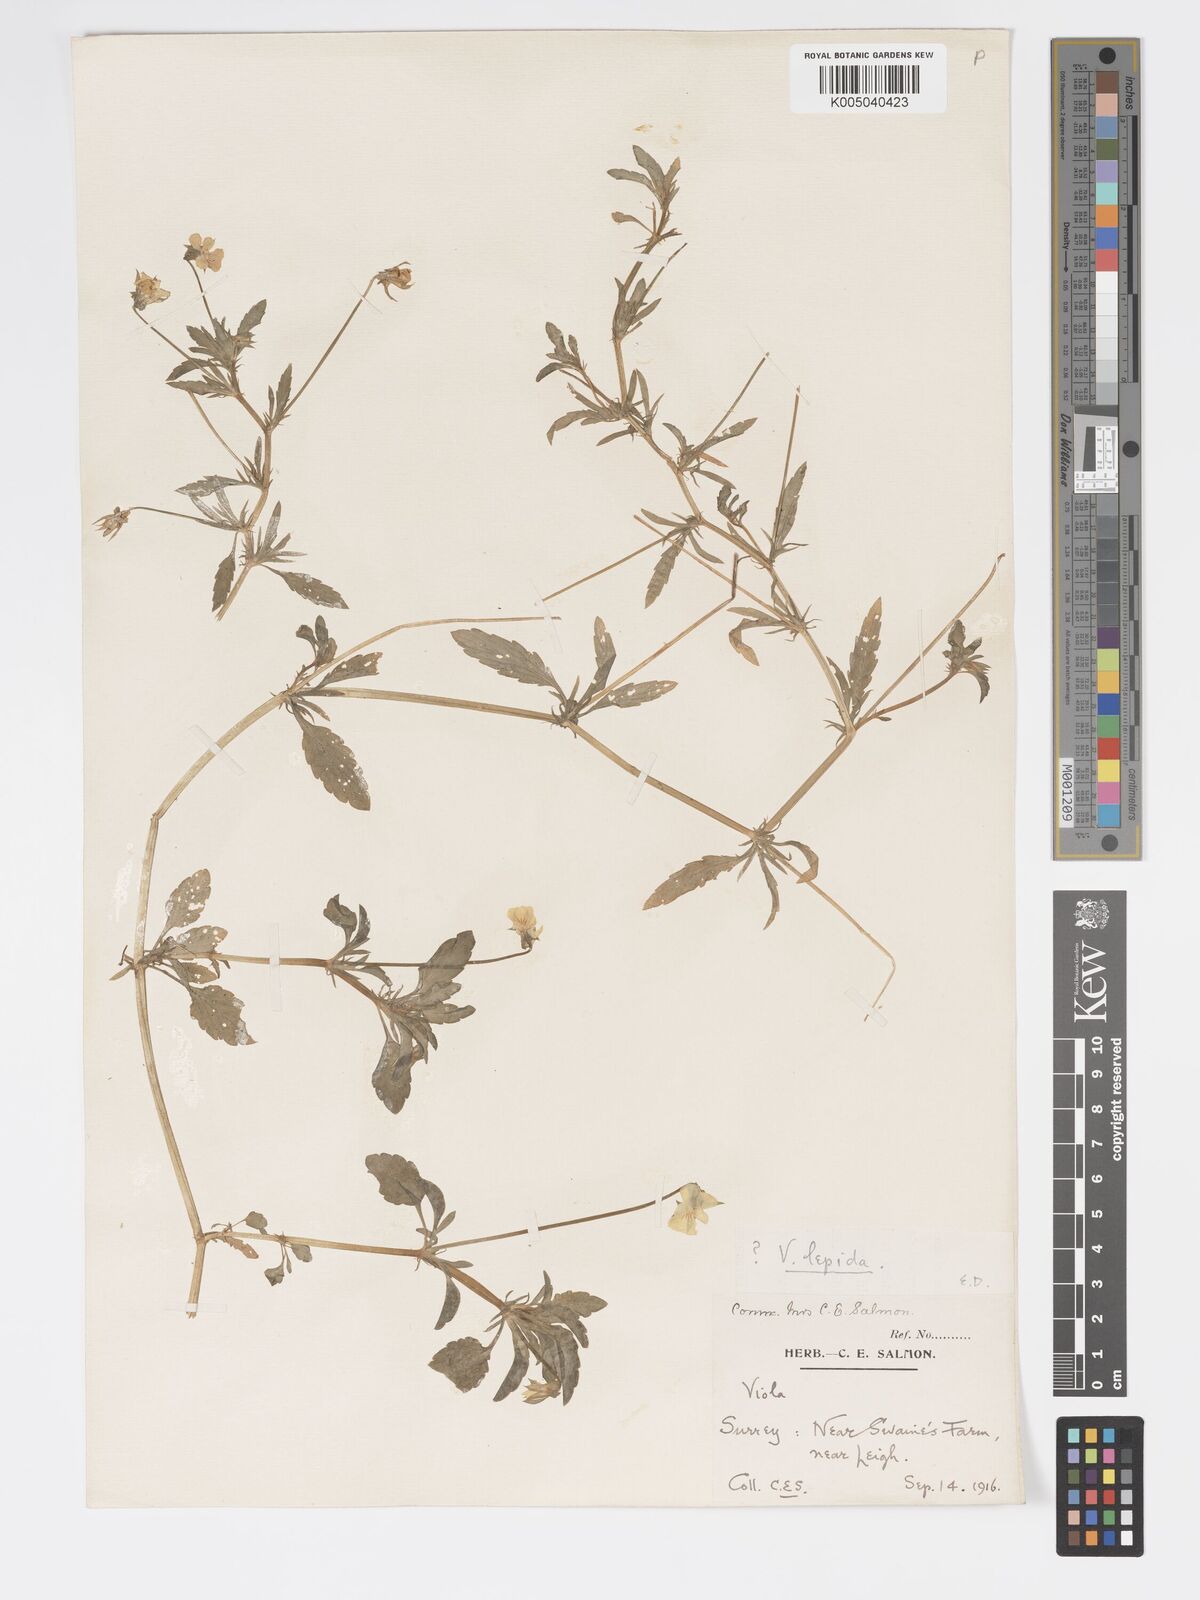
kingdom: Plantae
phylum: Tracheophyta
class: Magnoliopsida
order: Malpighiales
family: Violaceae
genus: Viola
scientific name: Viola arvensis
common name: Field pansy
